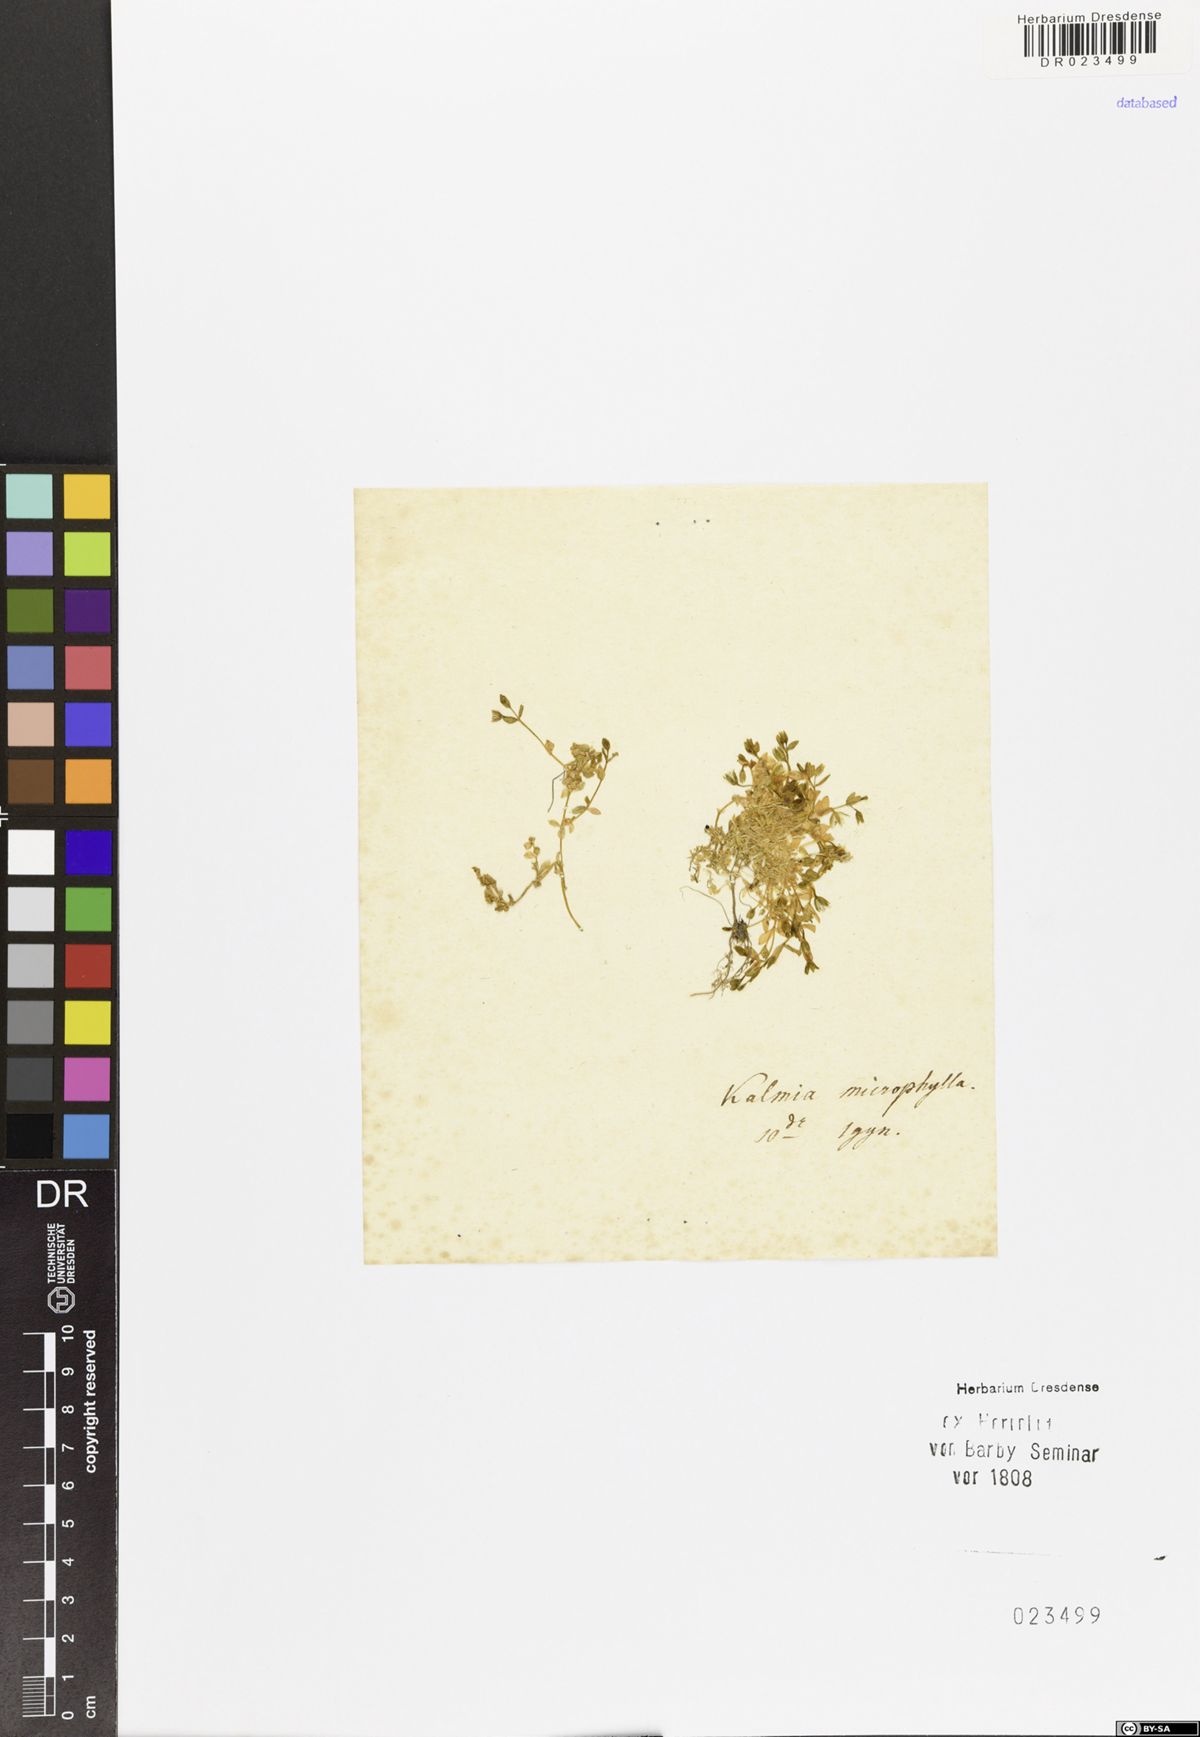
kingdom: Plantae
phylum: Tracheophyta
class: Magnoliopsida
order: Ericales
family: Ericaceae
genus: Kalmia
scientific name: Kalmia microphylla
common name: Alpine bog laurel
